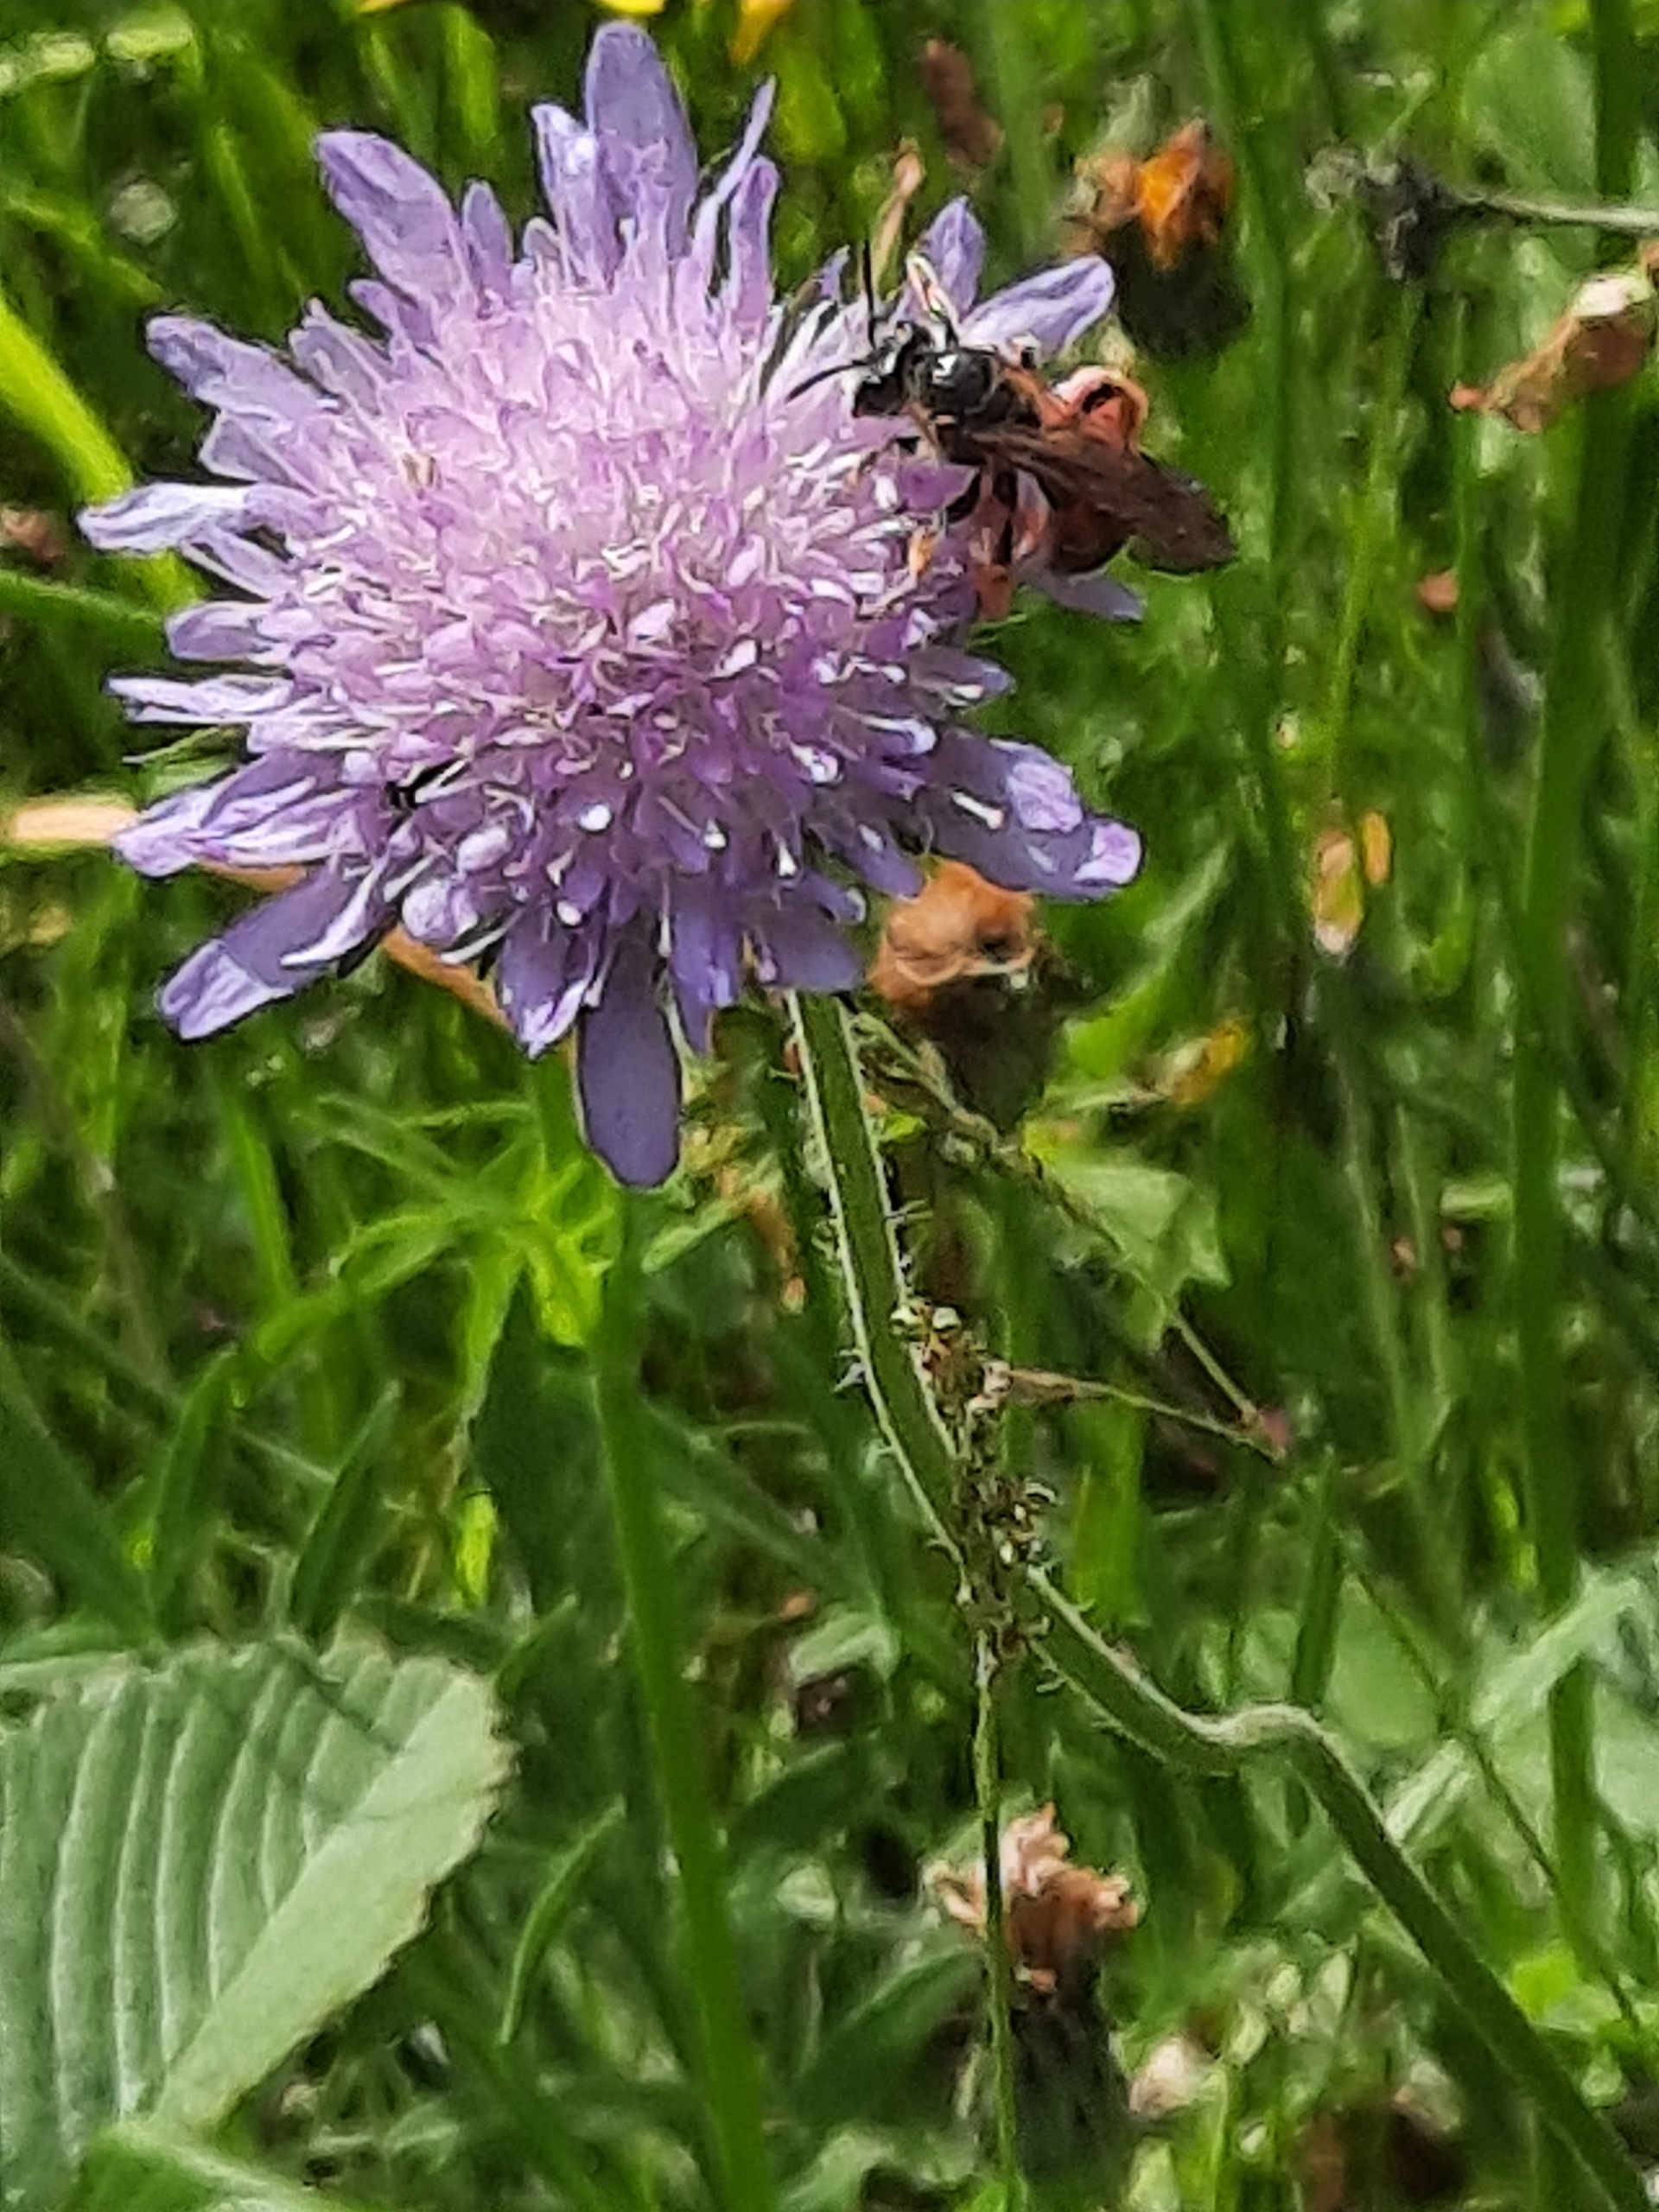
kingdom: Animalia
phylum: Arthropoda
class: Insecta
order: Hymenoptera
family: Andrenidae
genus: Andrena
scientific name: Andrena hattorfiana
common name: Blåhatjordbi
